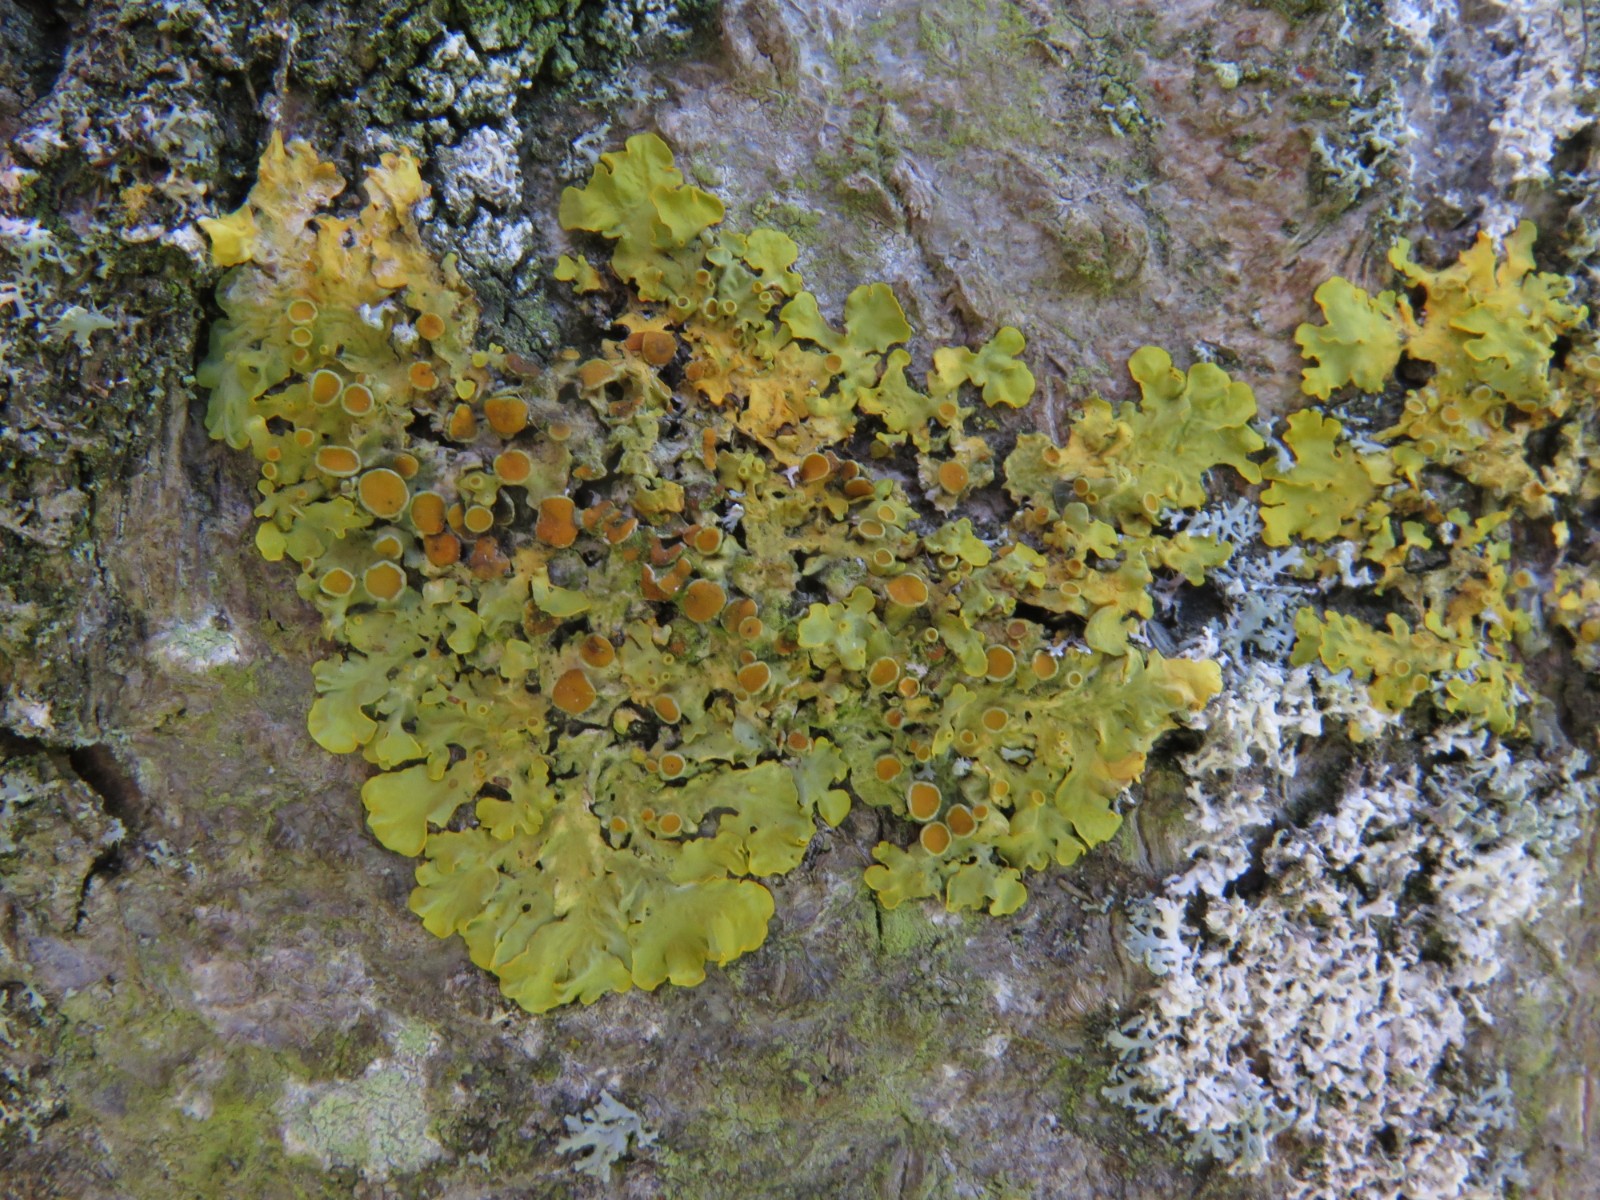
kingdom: Fungi
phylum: Ascomycota
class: Lecanoromycetes
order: Teloschistales
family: Teloschistaceae
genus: Xanthoria
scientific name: Xanthoria parietina
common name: almindelig væggelav
